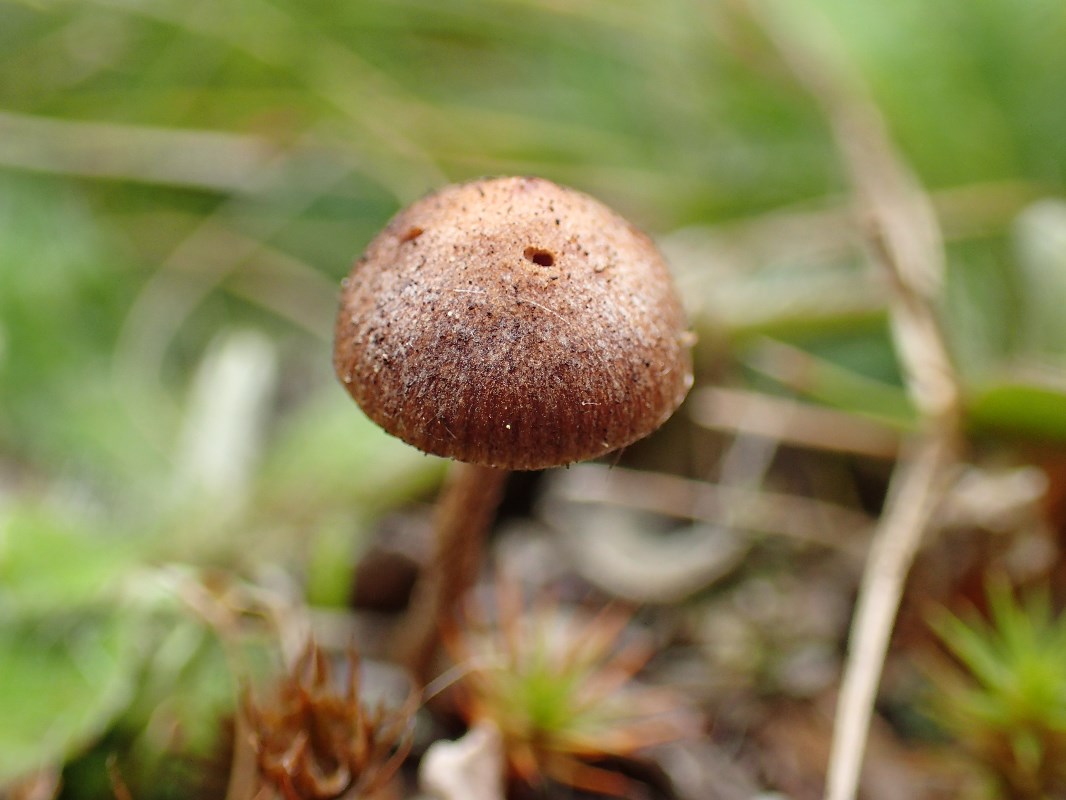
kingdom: Fungi
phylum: Basidiomycota
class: Agaricomycetes
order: Agaricales
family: Strophariaceae
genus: Deconica
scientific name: Deconica montana
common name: rødbrun stråhat
